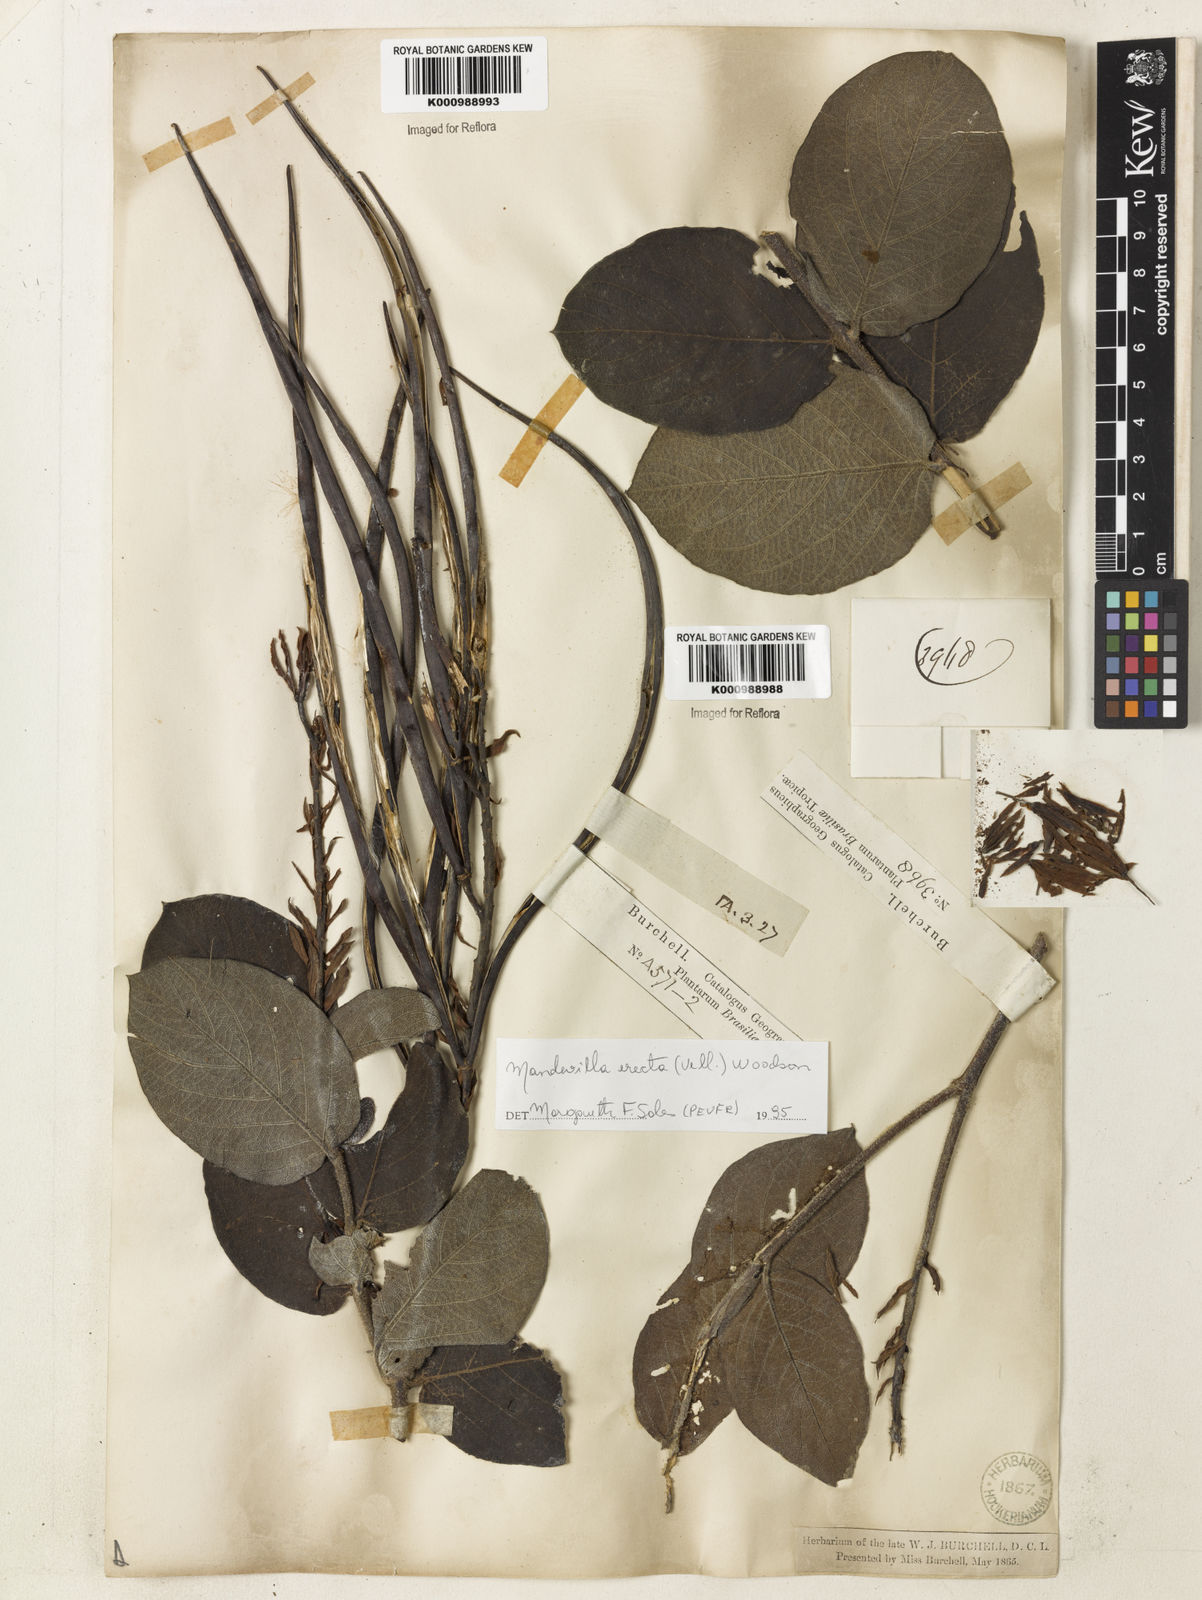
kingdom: Plantae
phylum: Tracheophyta
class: Magnoliopsida
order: Gentianales
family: Apocynaceae
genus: Mandevilla
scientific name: Mandevilla emarginata
